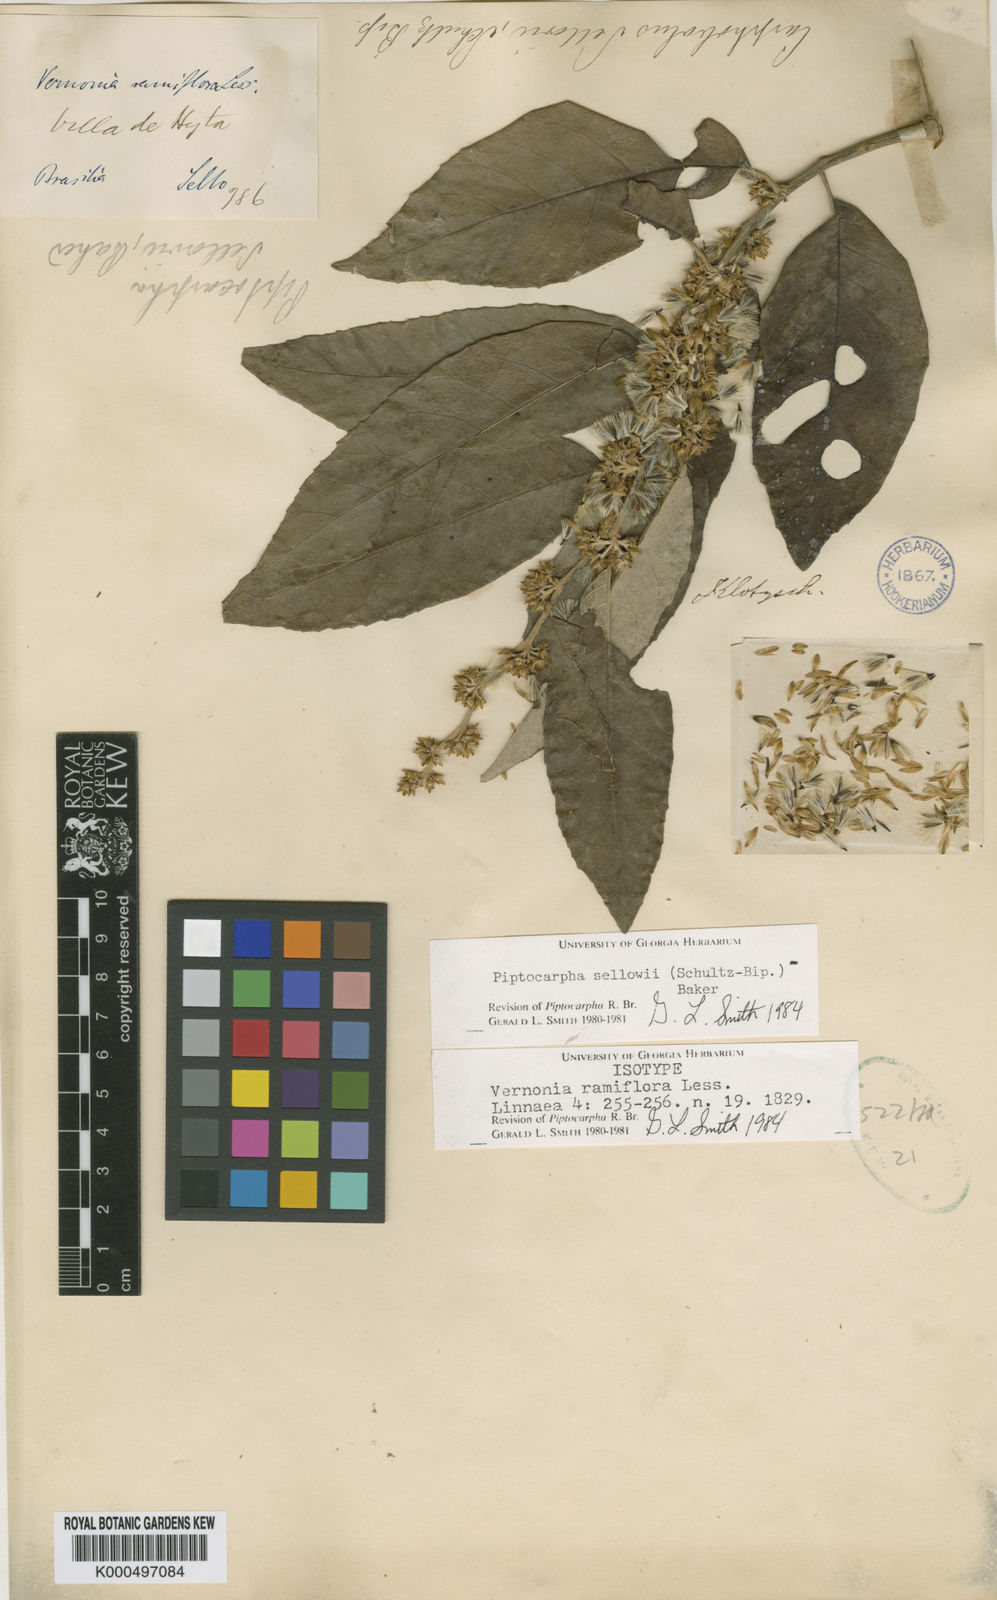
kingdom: Plantae
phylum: Tracheophyta
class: Magnoliopsida
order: Asterales
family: Asteraceae
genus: Piptocarpha
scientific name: Piptocarpha
